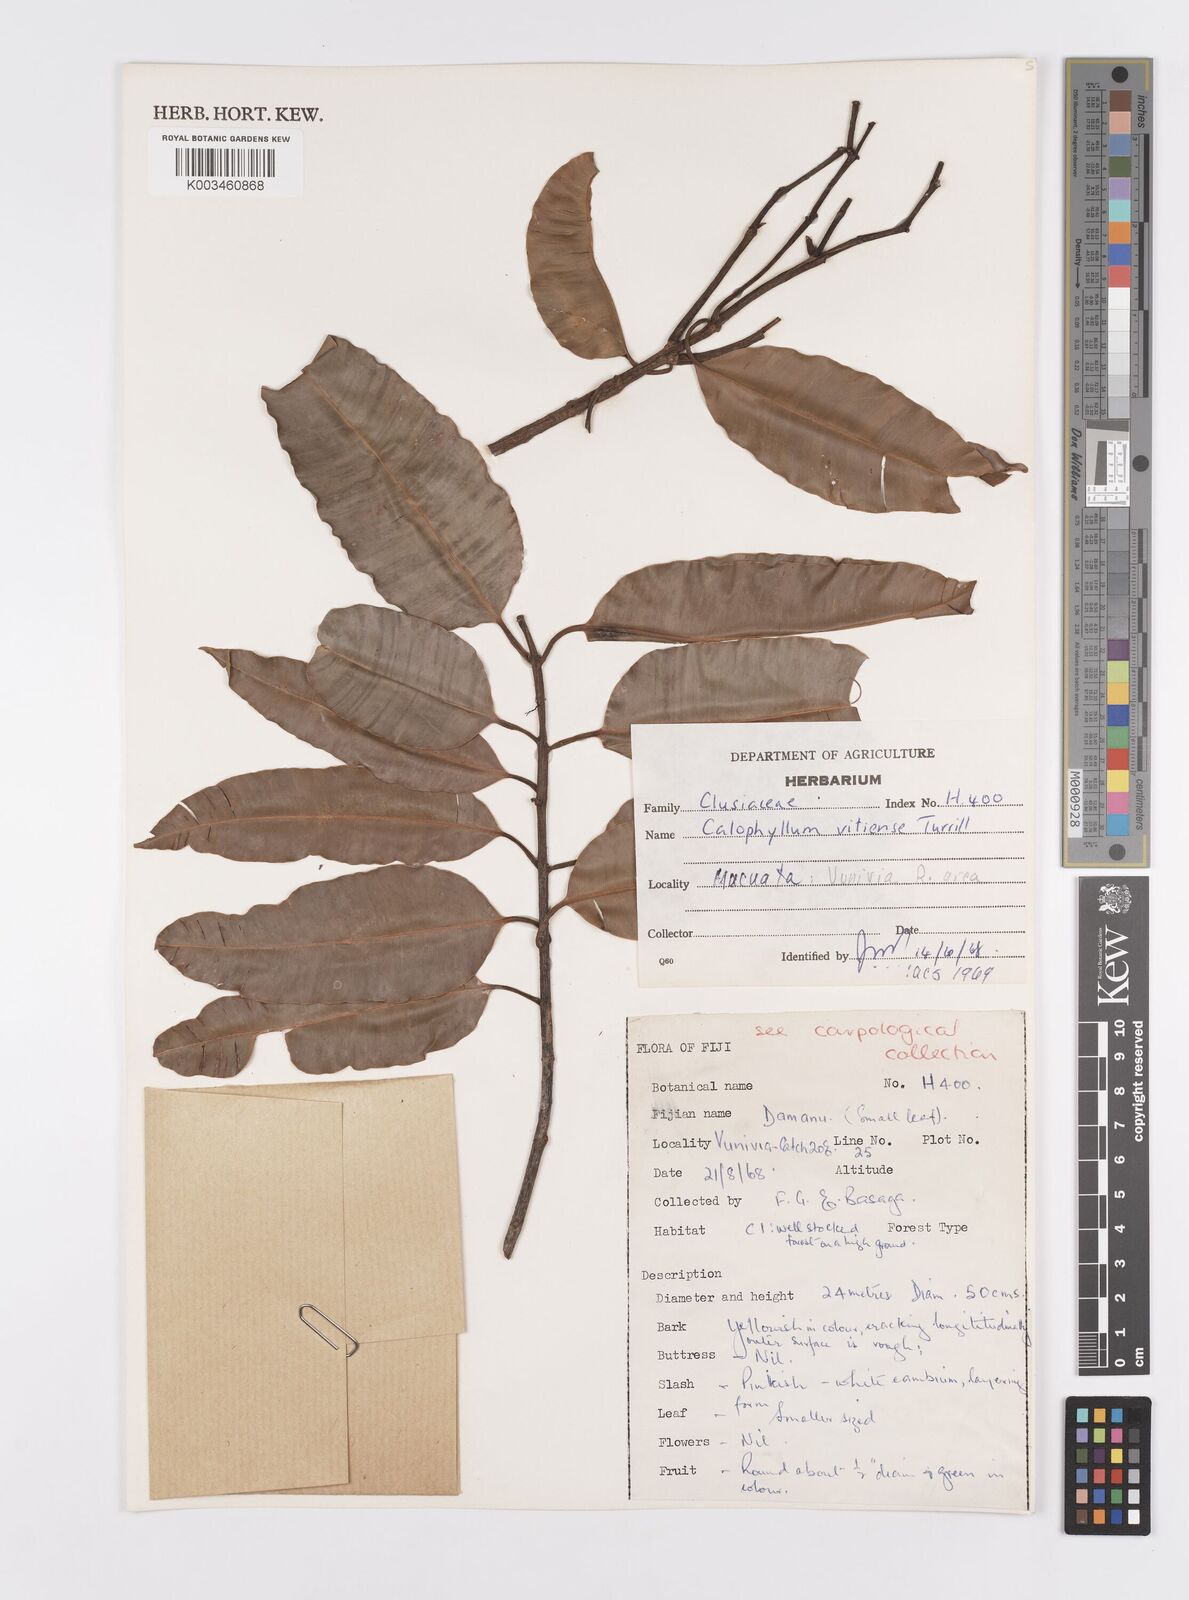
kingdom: Plantae
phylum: Tracheophyta
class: Magnoliopsida
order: Malpighiales
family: Calophyllaceae
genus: Calophyllum
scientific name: Calophyllum vitiense
